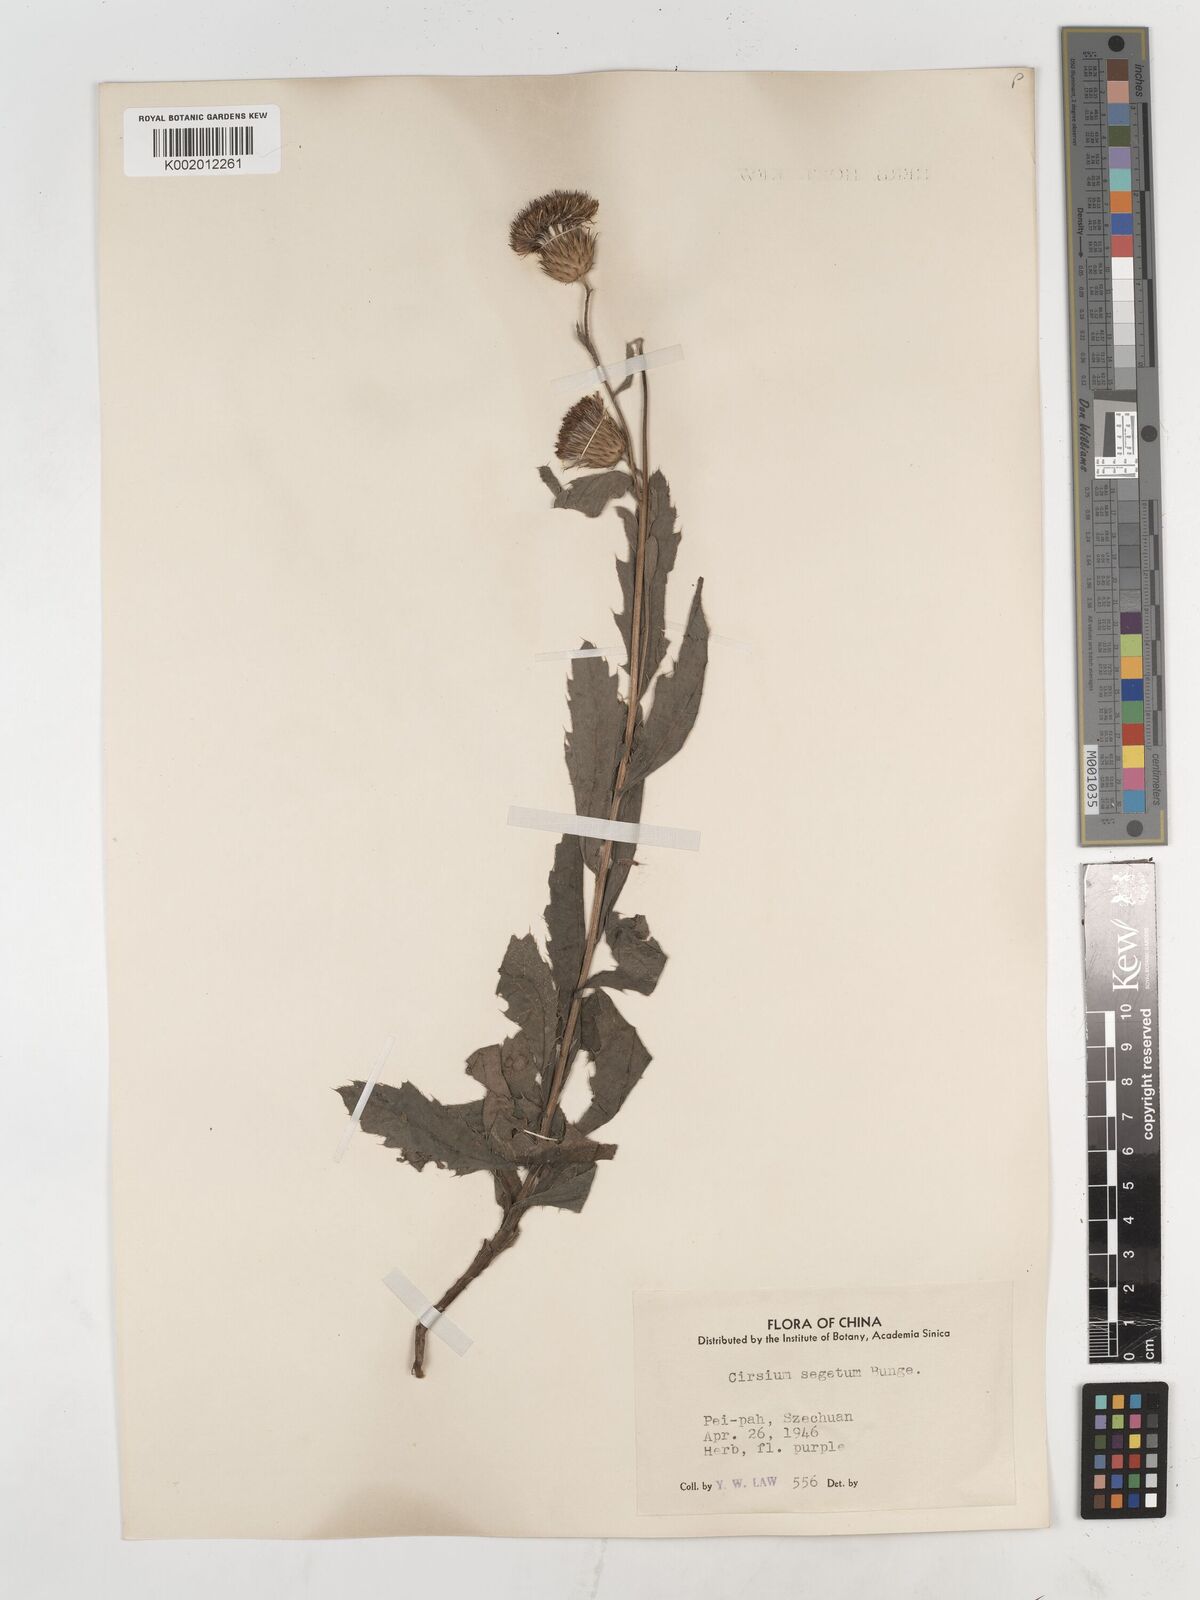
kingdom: Plantae
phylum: Tracheophyta
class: Magnoliopsida
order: Asterales
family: Asteraceae
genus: Cirsium
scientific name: Cirsium arvense
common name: Creeping thistle
